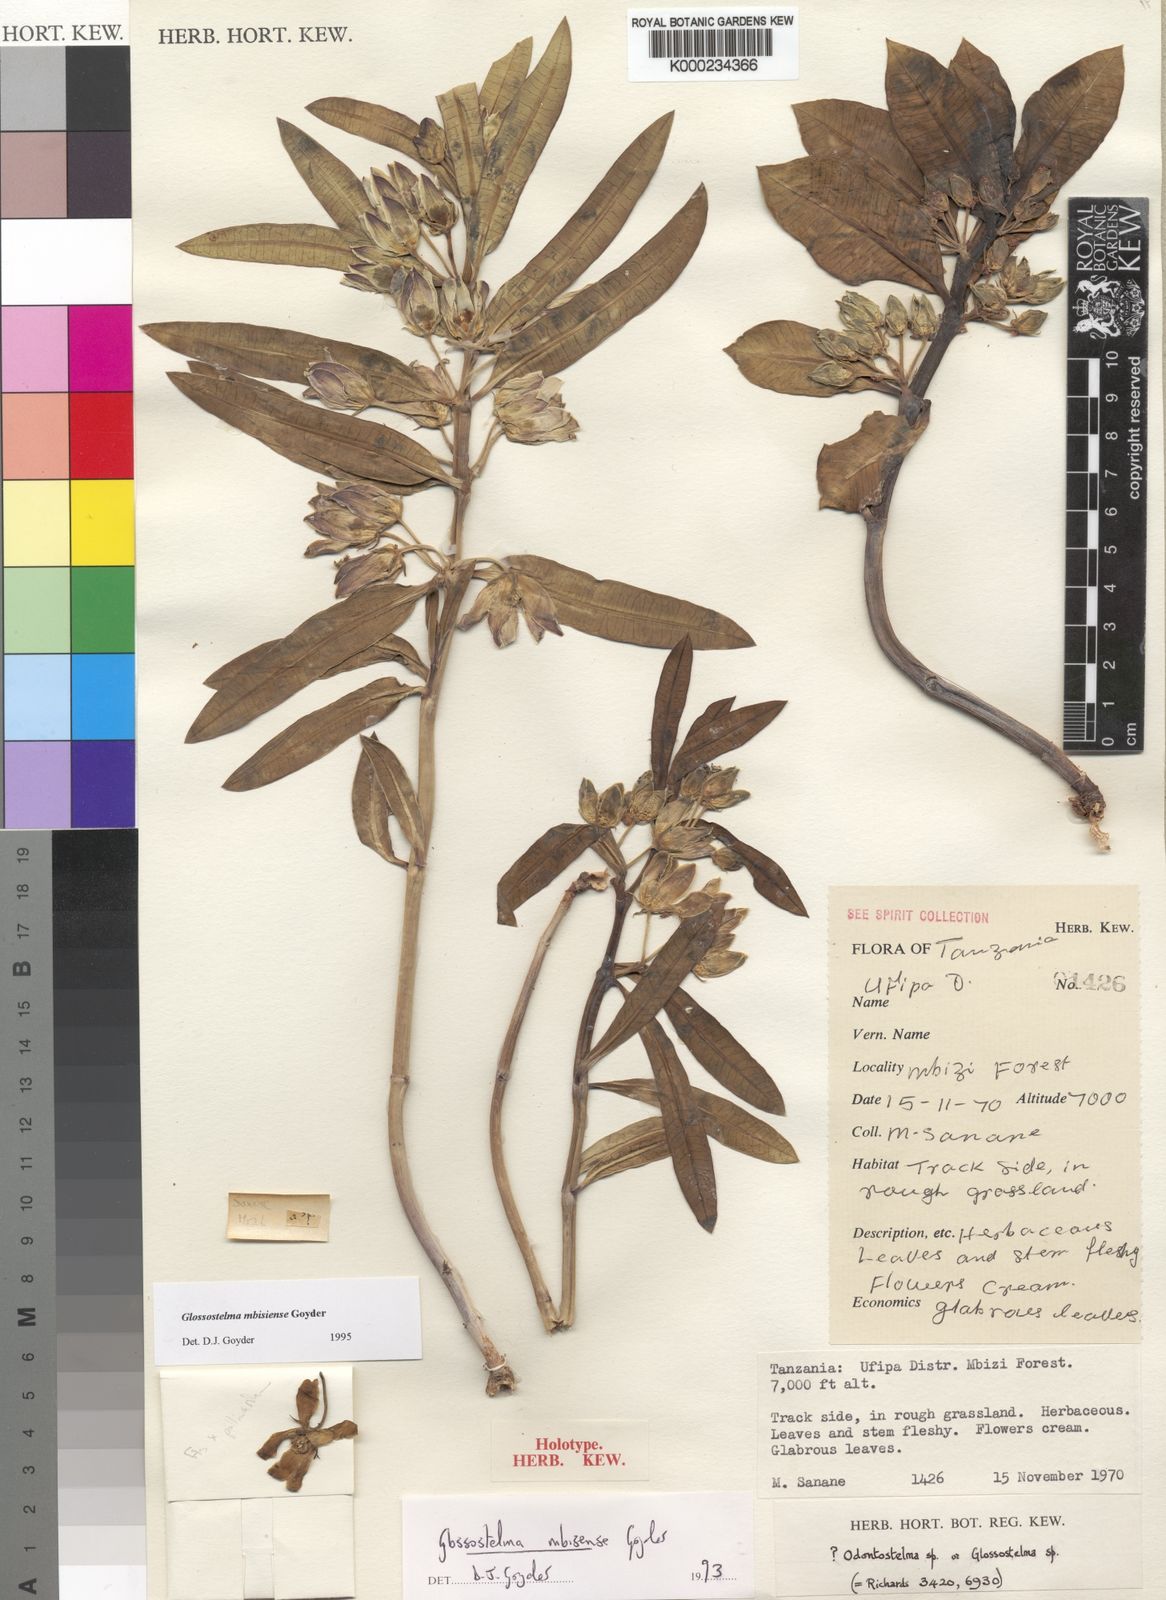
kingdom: Plantae
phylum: Tracheophyta
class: Magnoliopsida
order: Gentianales
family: Apocynaceae
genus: Glossostelma
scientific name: Glossostelma mbisiense
